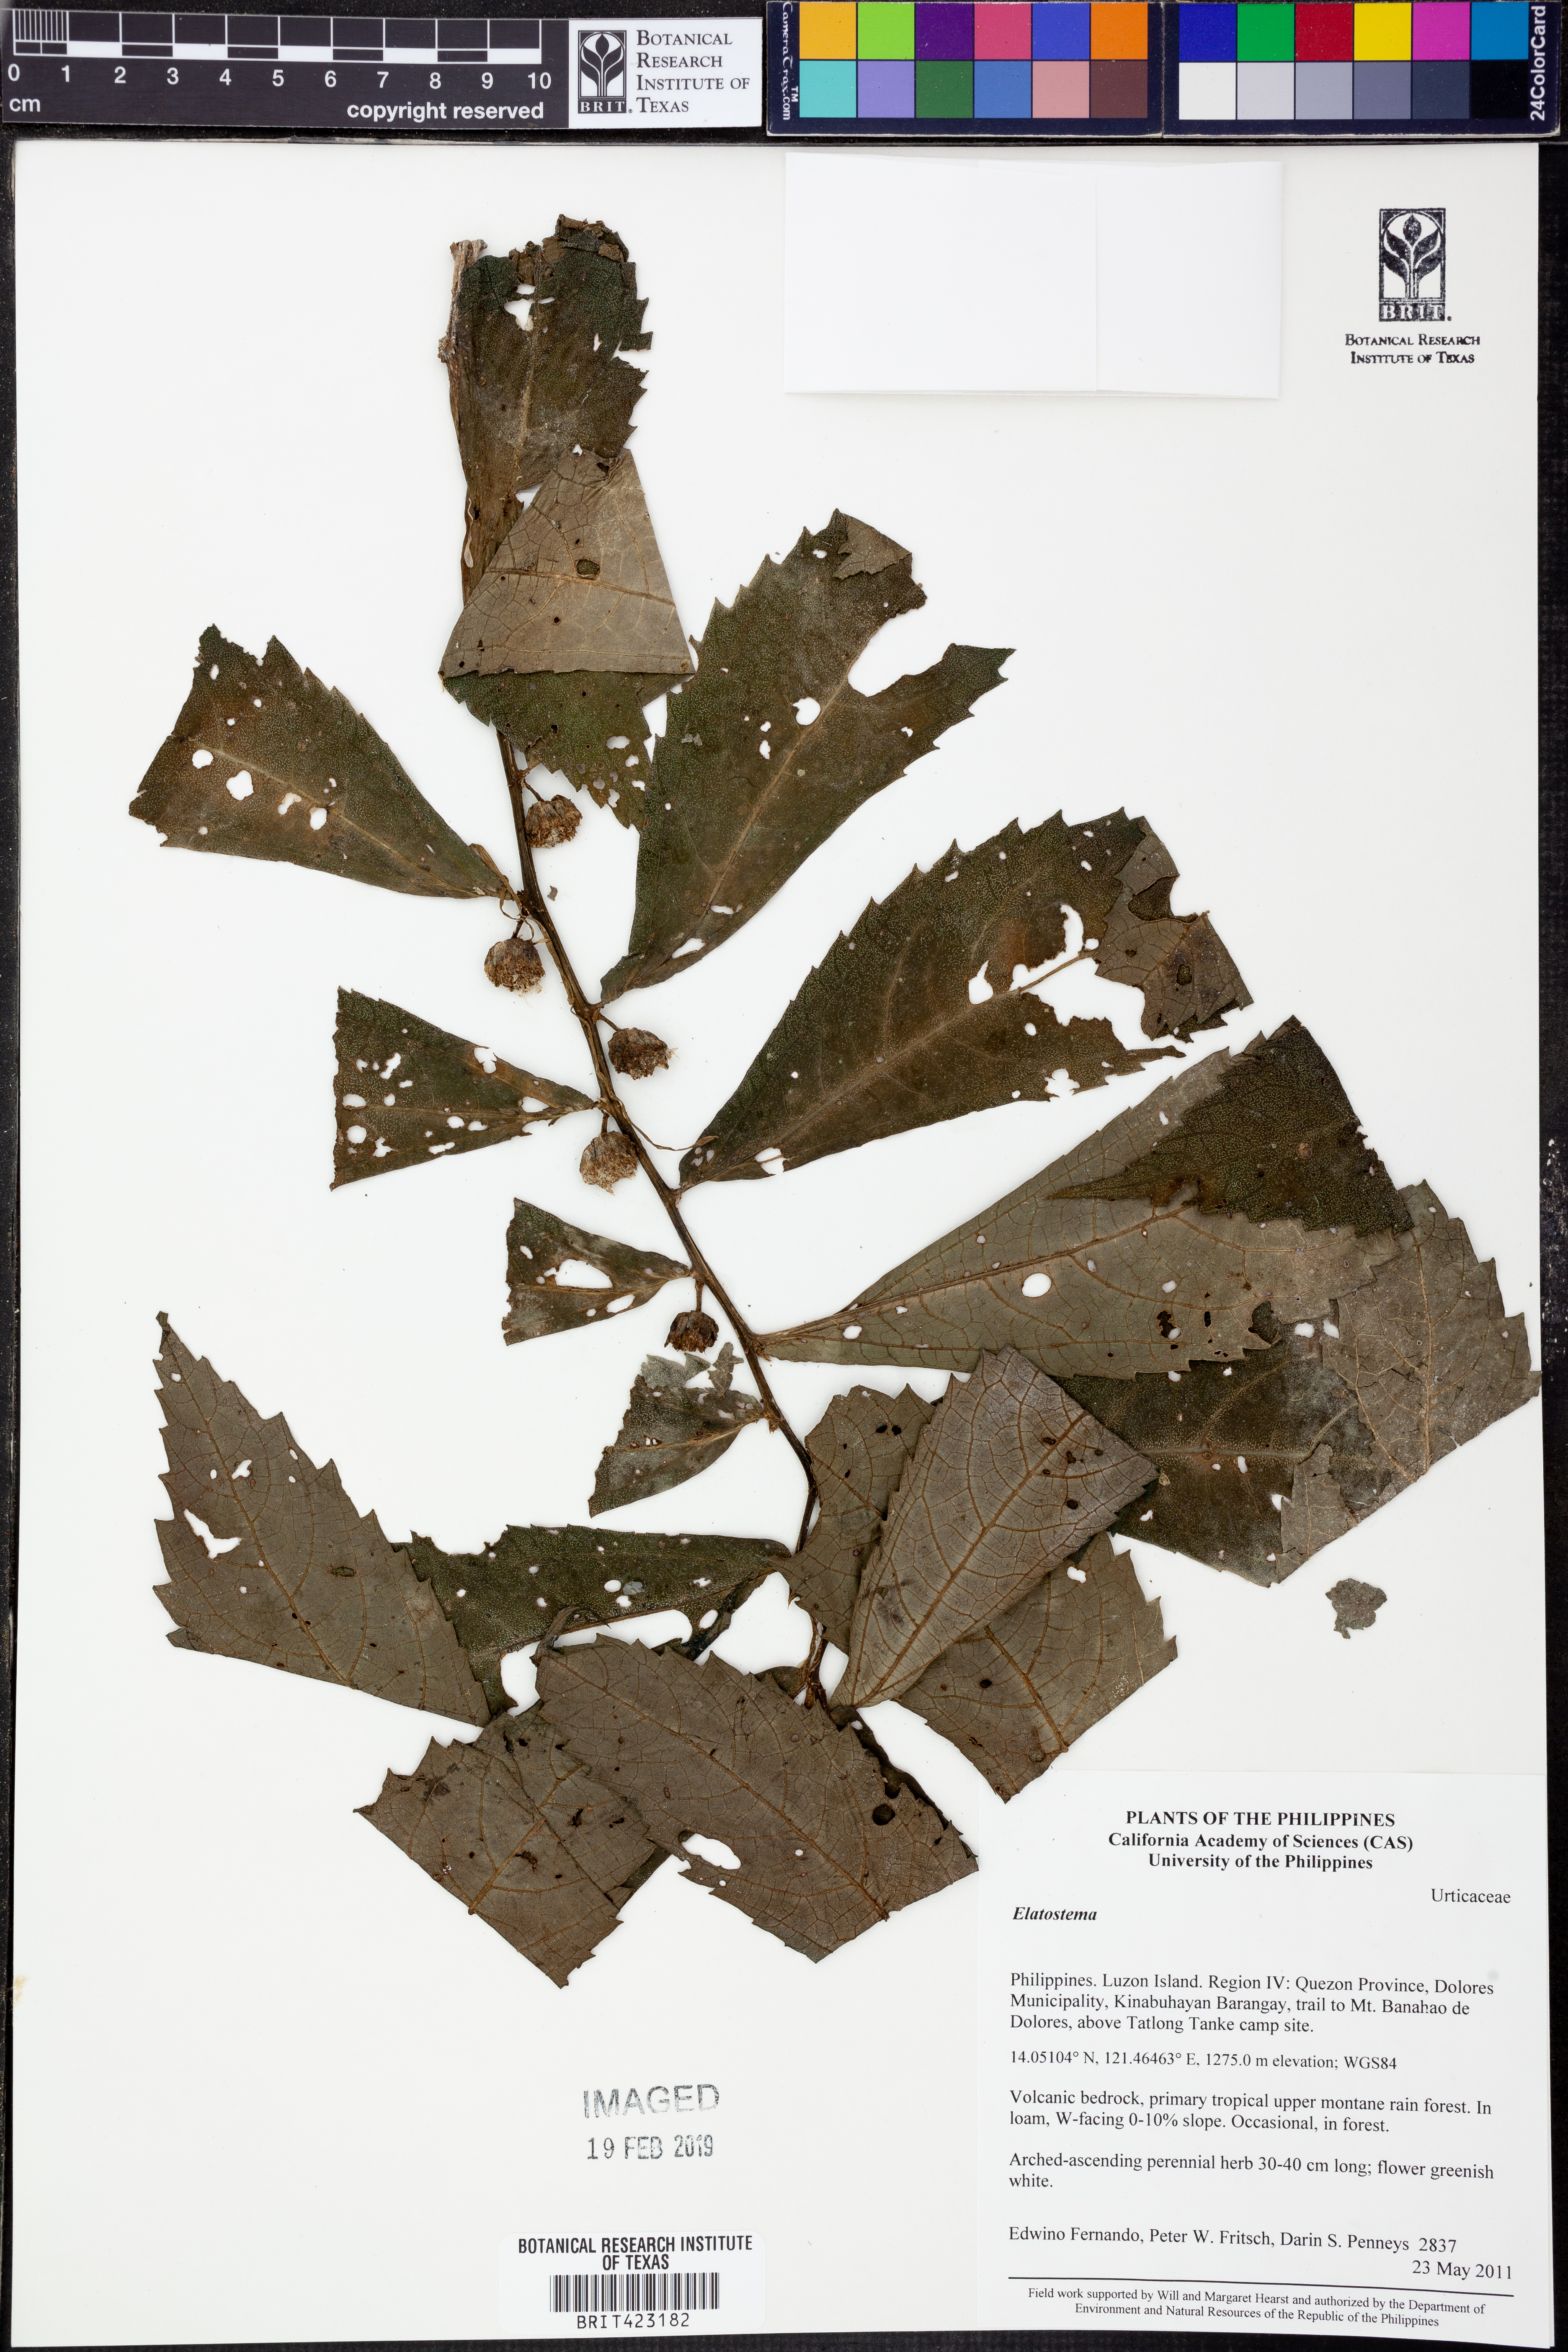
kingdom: Plantae
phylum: Tracheophyta
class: Magnoliopsida
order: Rosales
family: Urticaceae
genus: Elatostema
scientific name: Elatostema
